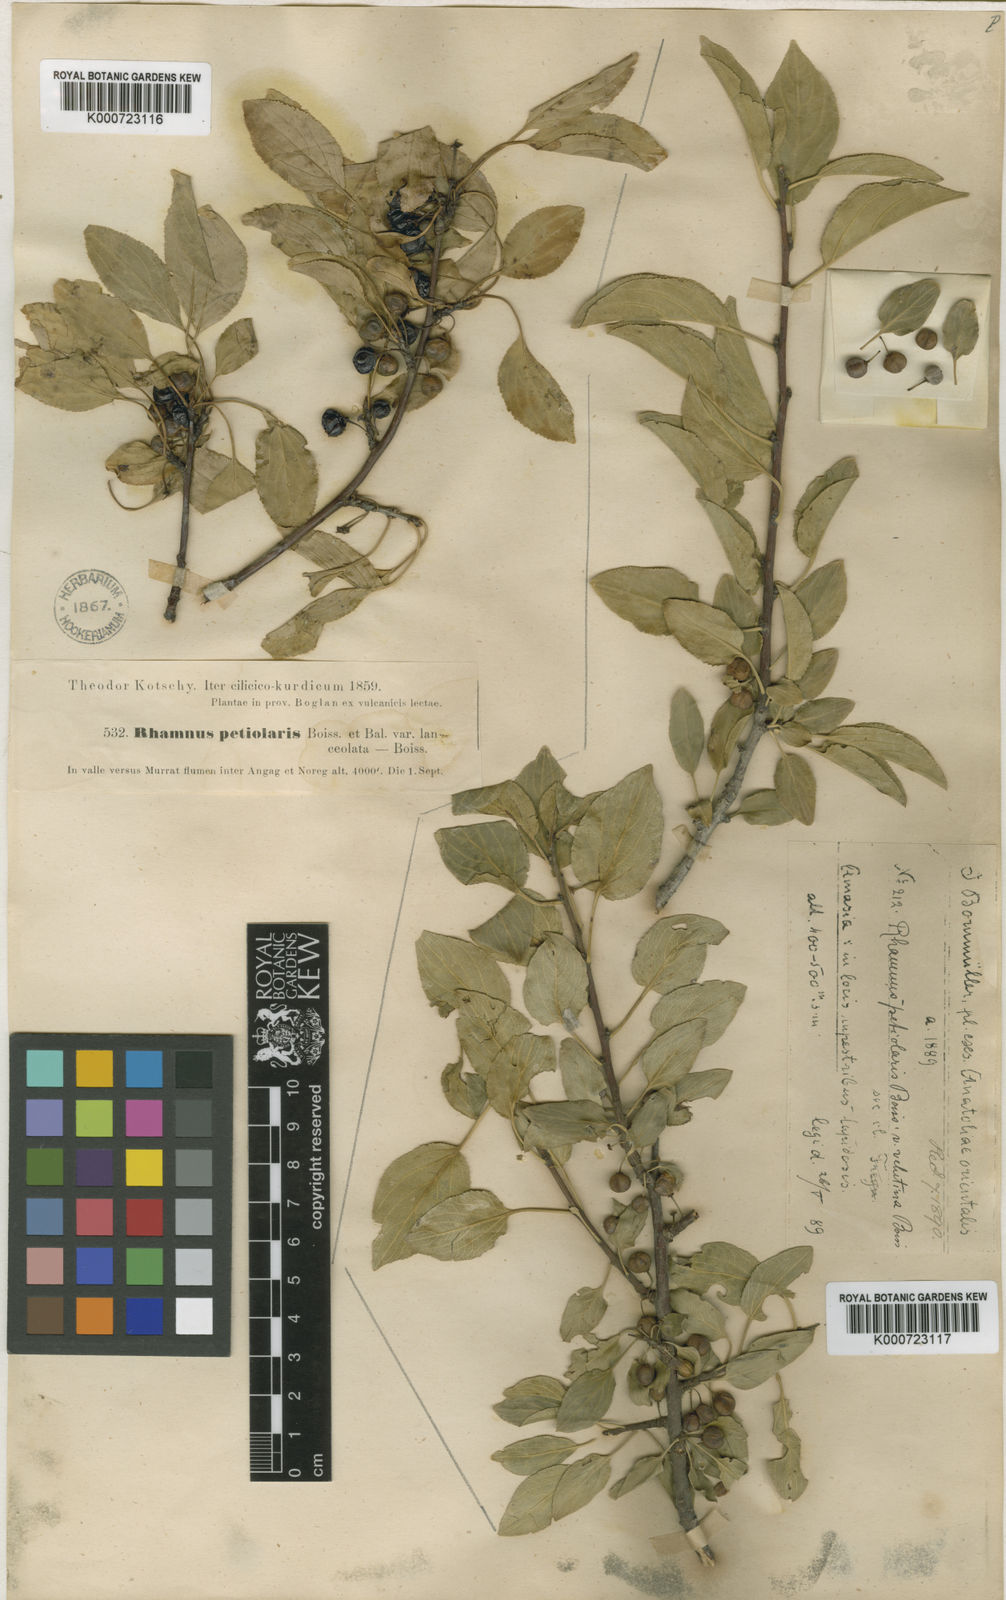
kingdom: Plantae
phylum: Tracheophyta
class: Magnoliopsida
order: Rosales
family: Rhamnaceae
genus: Rhamnus
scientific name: Rhamnus petiolaris
